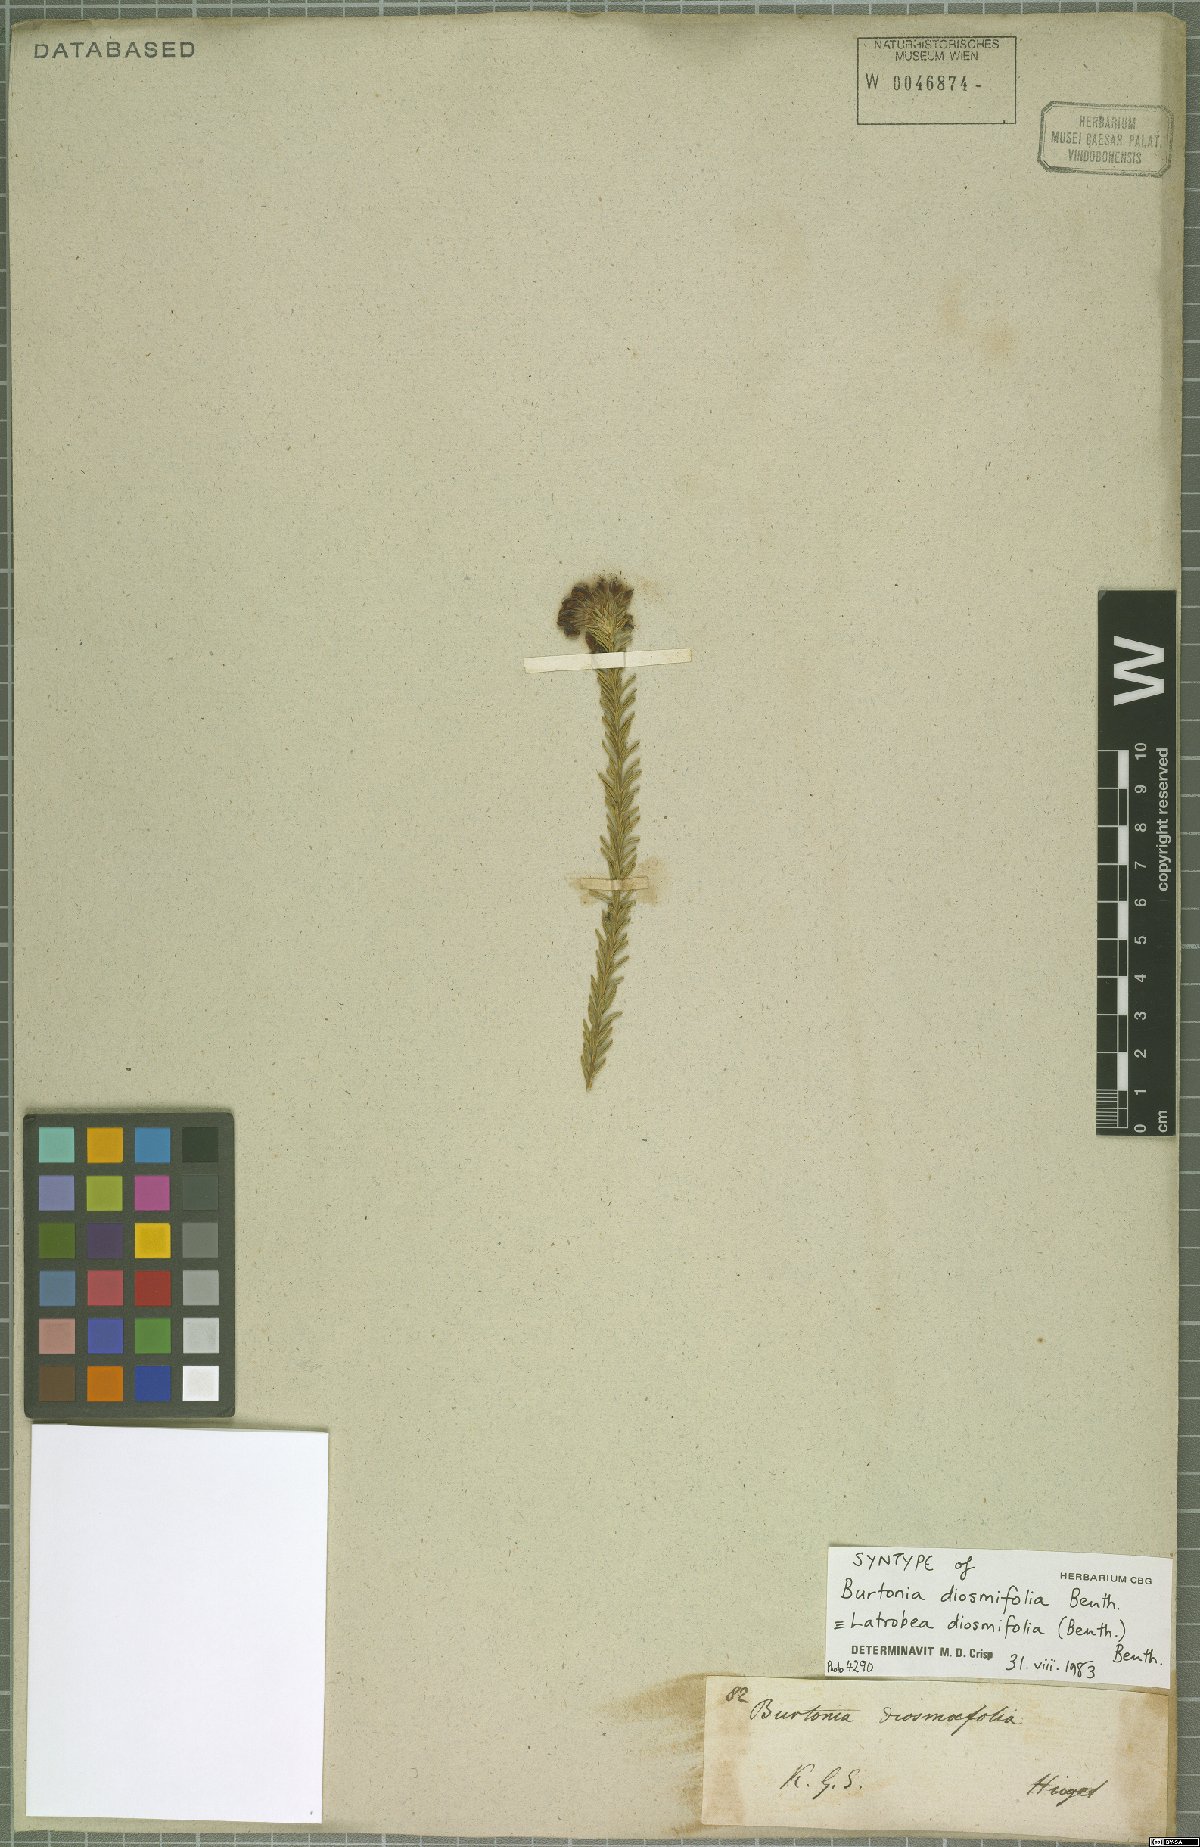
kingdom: Plantae
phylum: Tracheophyta
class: Magnoliopsida
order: Fabales
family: Fabaceae
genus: Latrobea
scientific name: Latrobea diosmifolia
